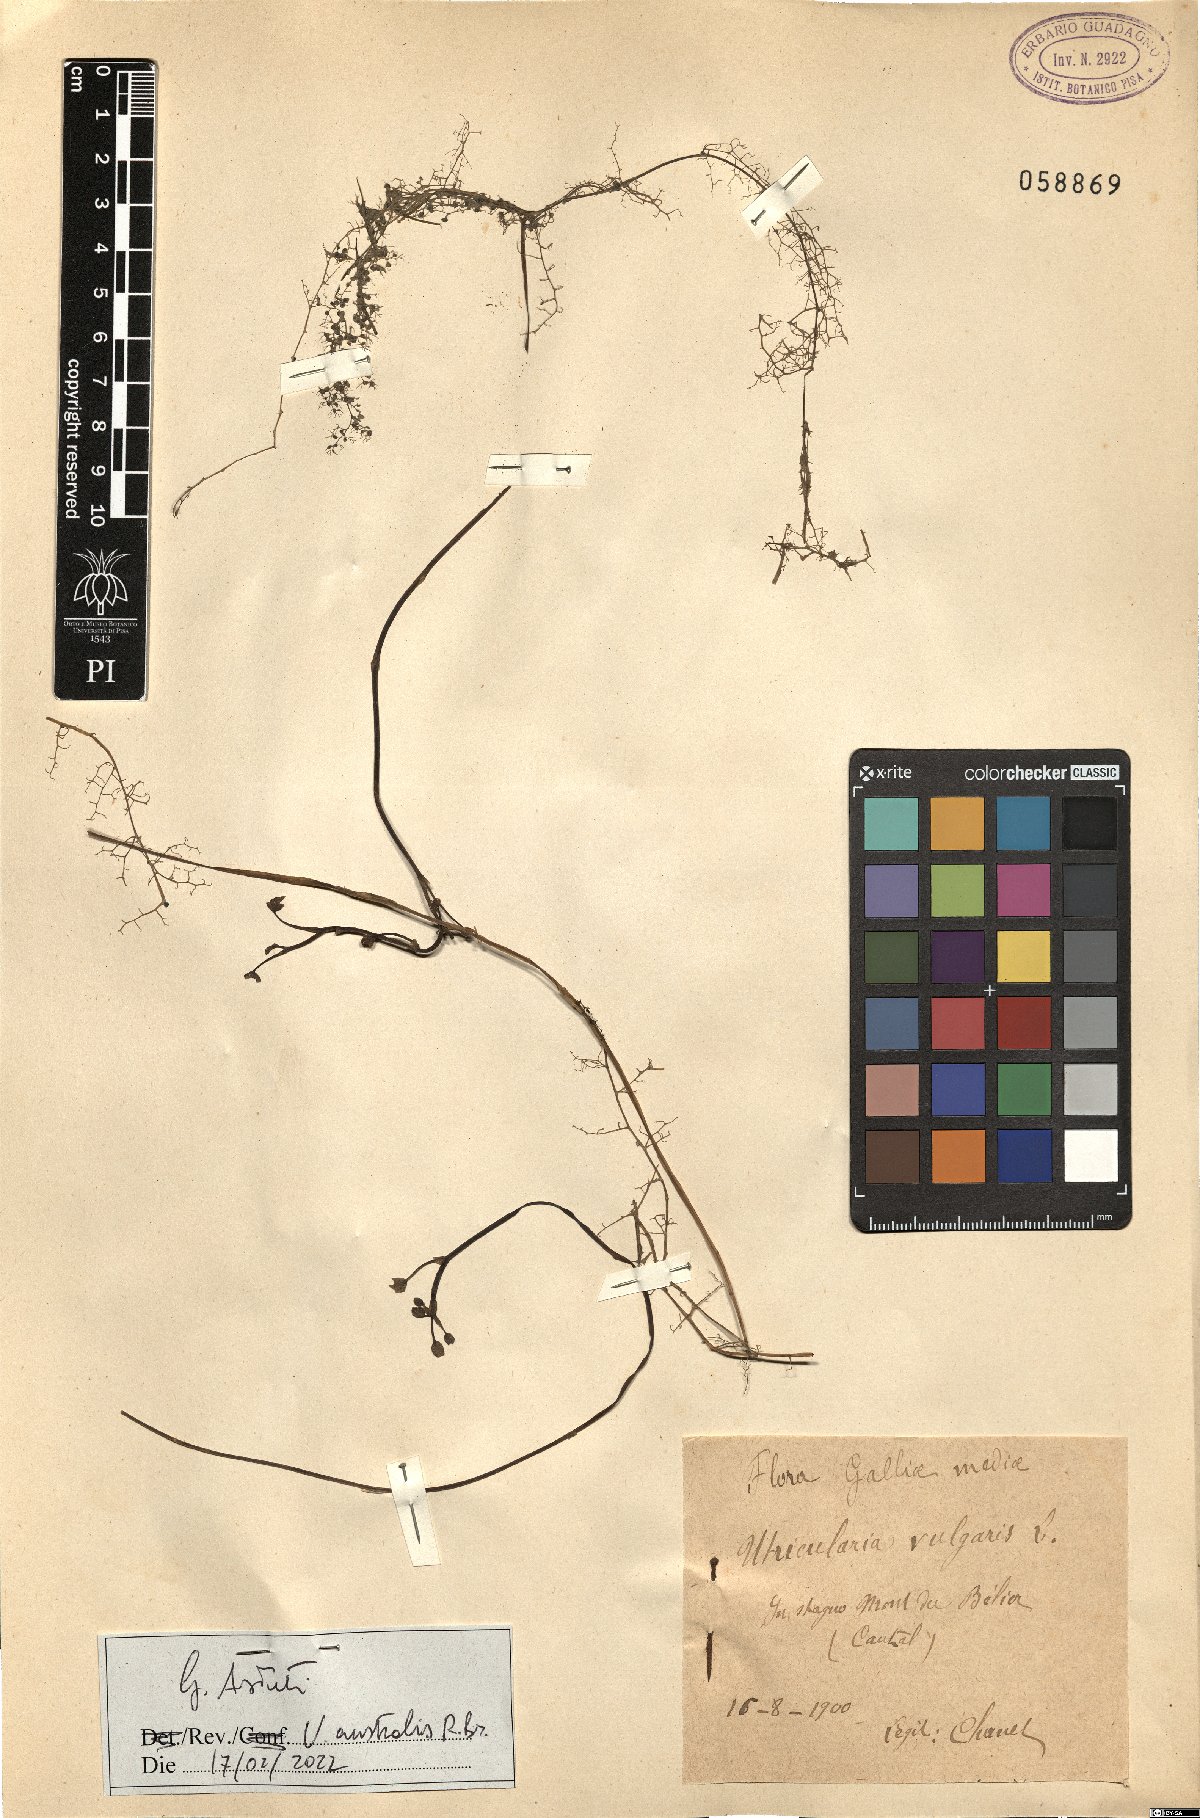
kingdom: Plantae
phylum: Tracheophyta
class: Magnoliopsida
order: Lamiales
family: Lentibulariaceae
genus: Utricularia
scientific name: Utricularia australis
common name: Bladderwort
